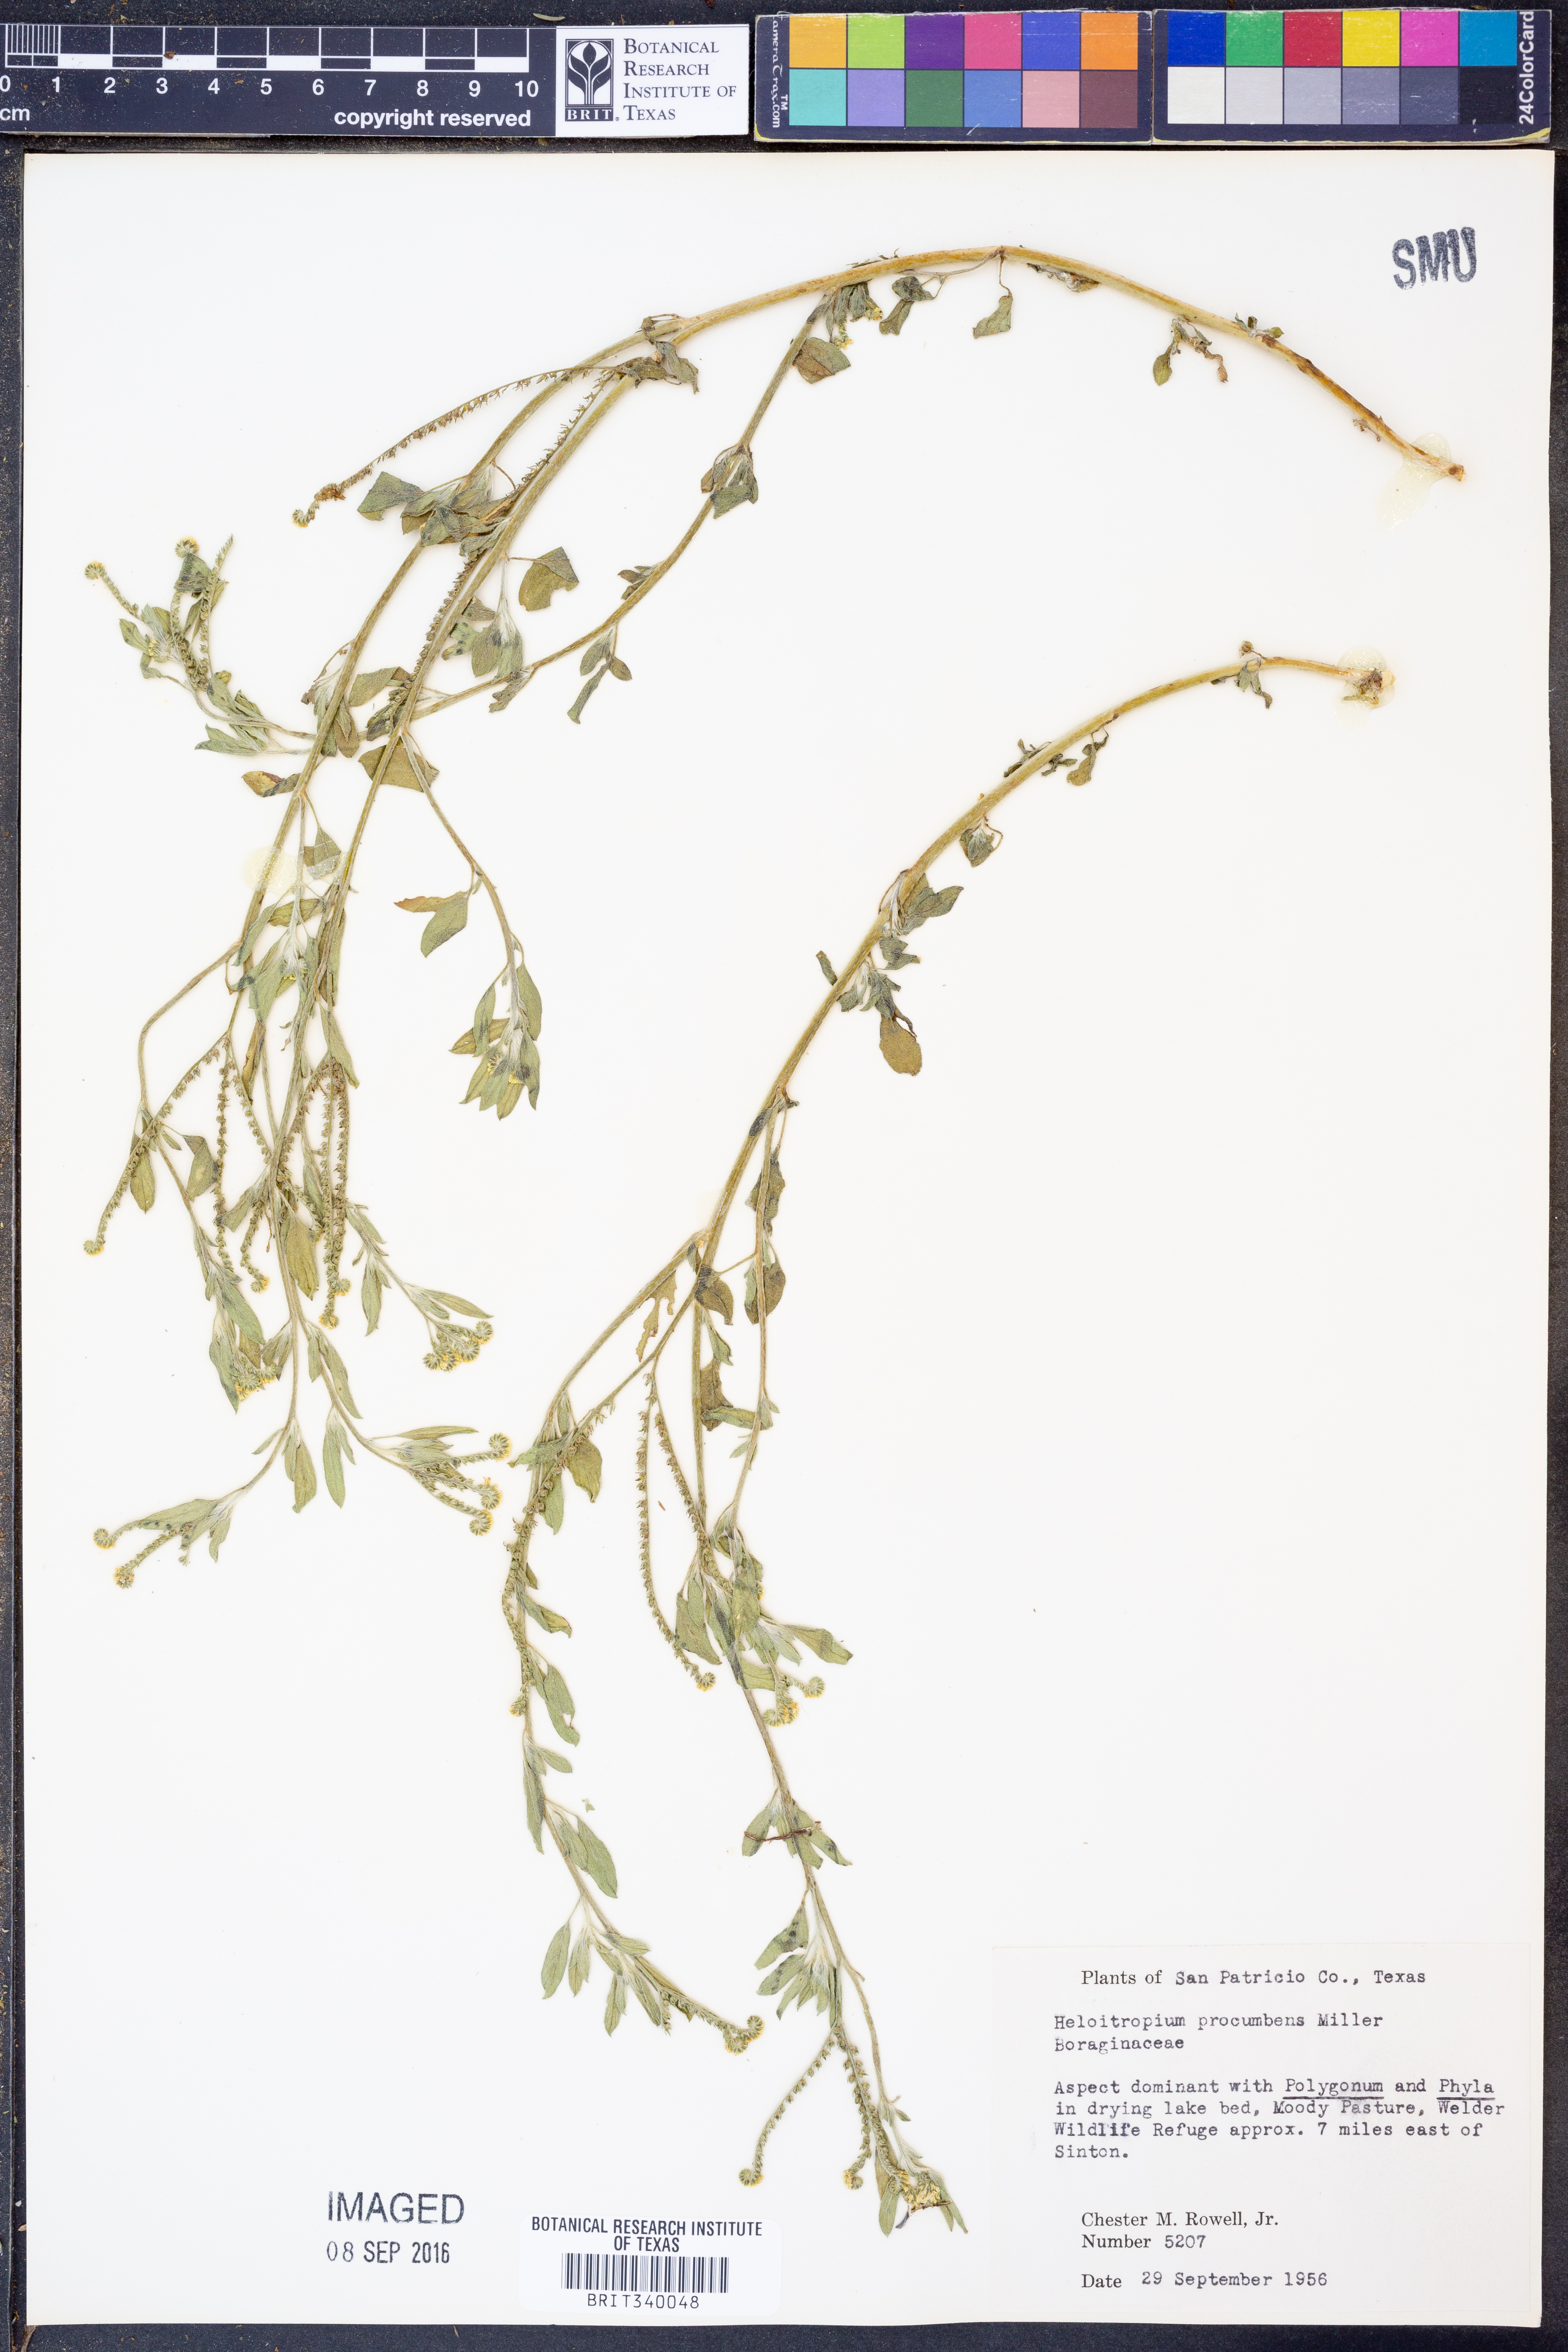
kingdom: Plantae
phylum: Tracheophyta
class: Magnoliopsida
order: Boraginales
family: Heliotropiaceae
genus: Euploca
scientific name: Euploca procumbens
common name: Fourspike heliotrope
